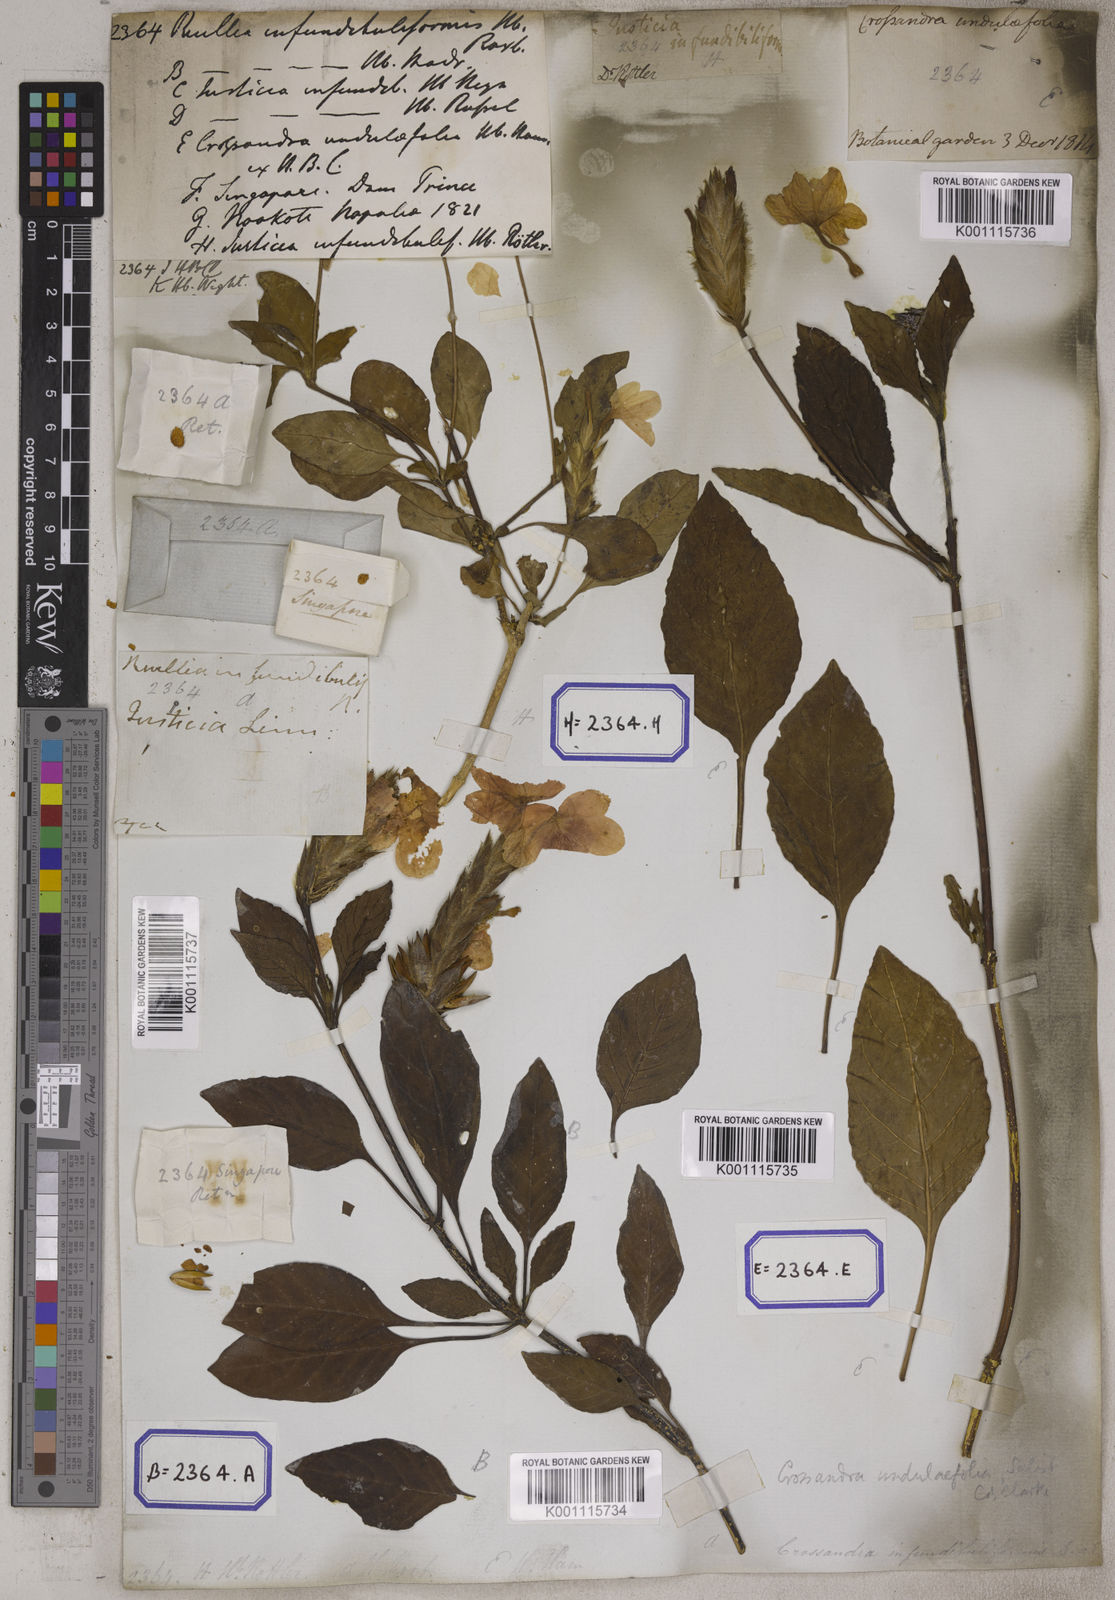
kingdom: Plantae
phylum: Tracheophyta
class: Magnoliopsida
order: Lamiales
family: Acanthaceae
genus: Crossandra
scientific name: Crossandra infundibuliformis
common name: Firecracker-flower
